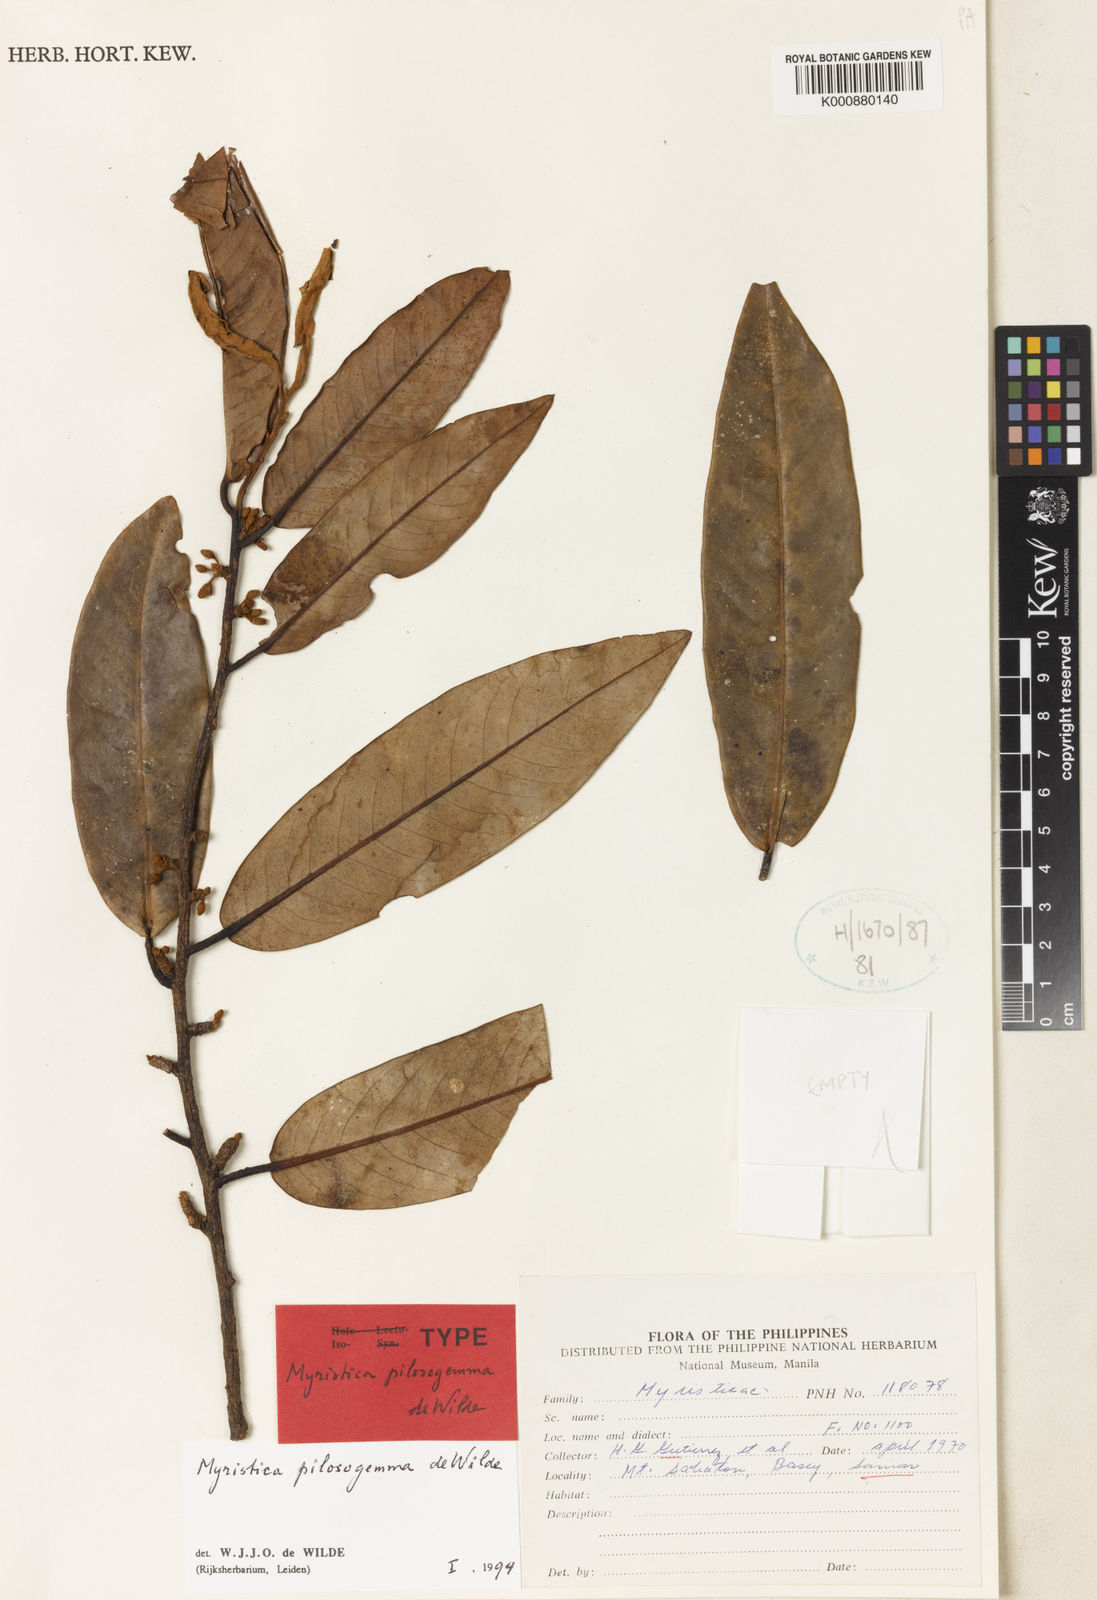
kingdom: Plantae
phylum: Tracheophyta
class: Magnoliopsida
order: Magnoliales
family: Myristicaceae
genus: Myristica
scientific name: Myristica pilosigemma
